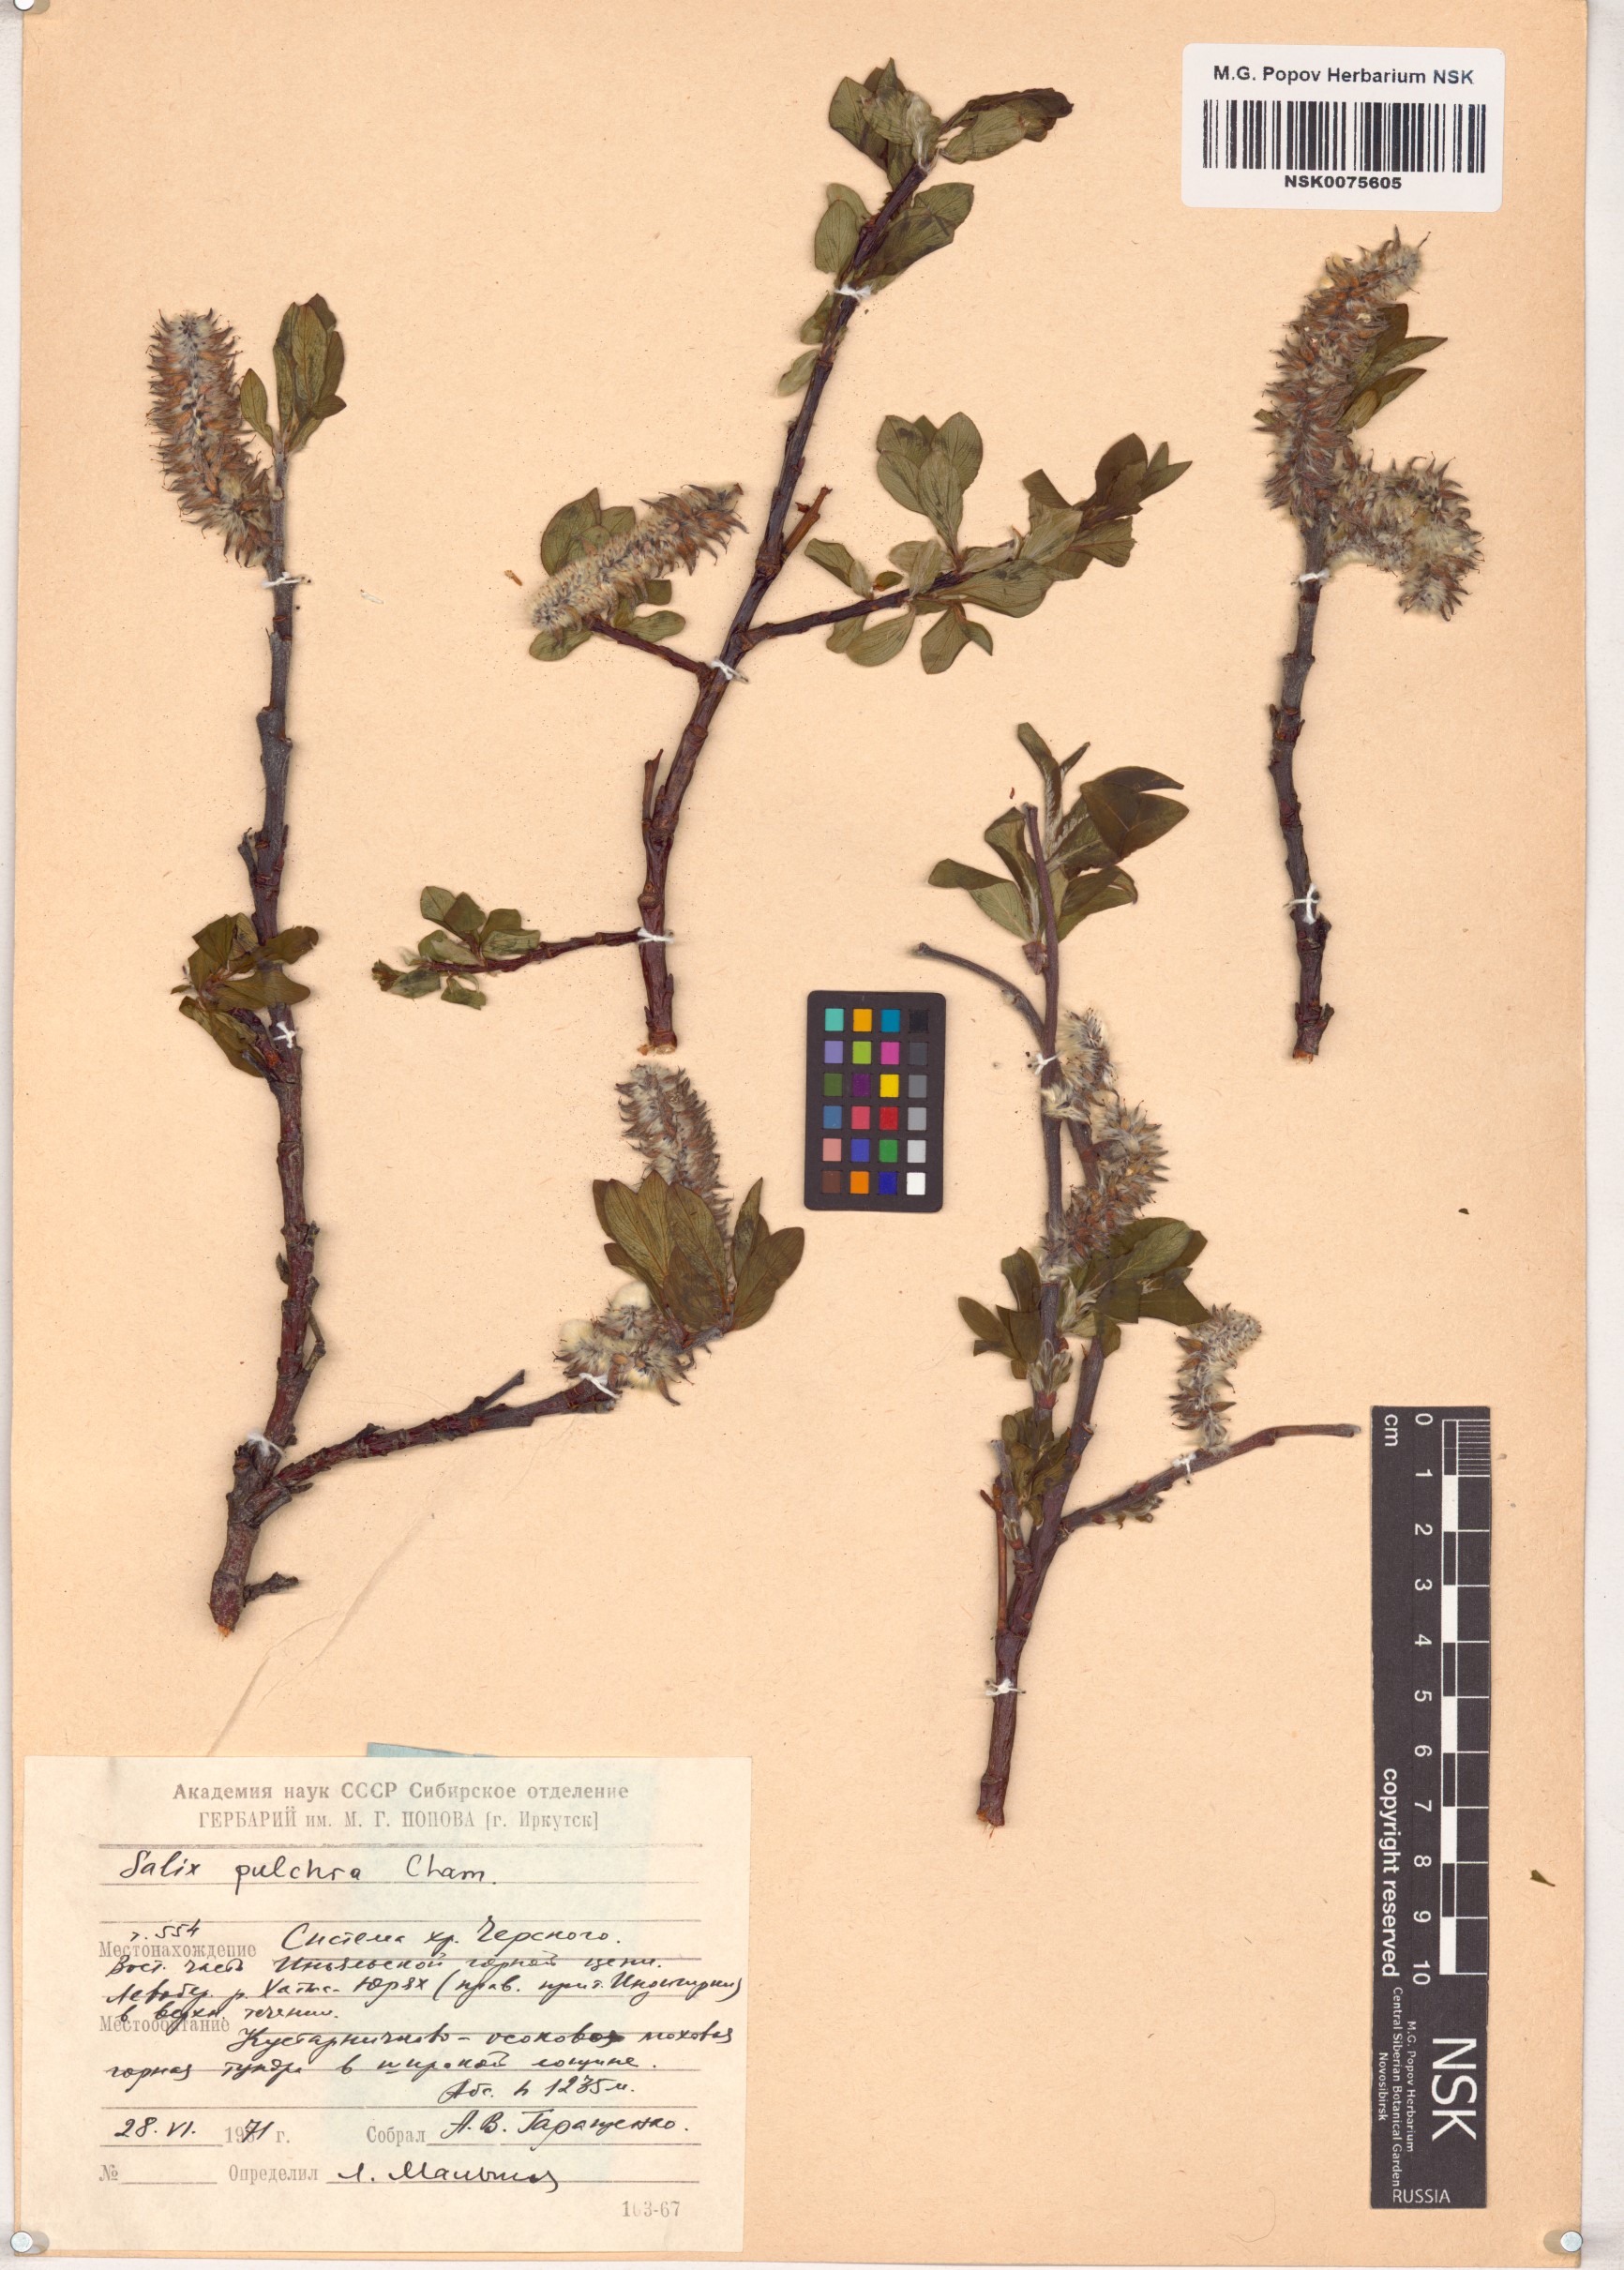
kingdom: Plantae
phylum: Tracheophyta
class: Magnoliopsida
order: Malpighiales
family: Salicaceae
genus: Salix
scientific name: Salix pulchra
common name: Diamond-leaved willow
